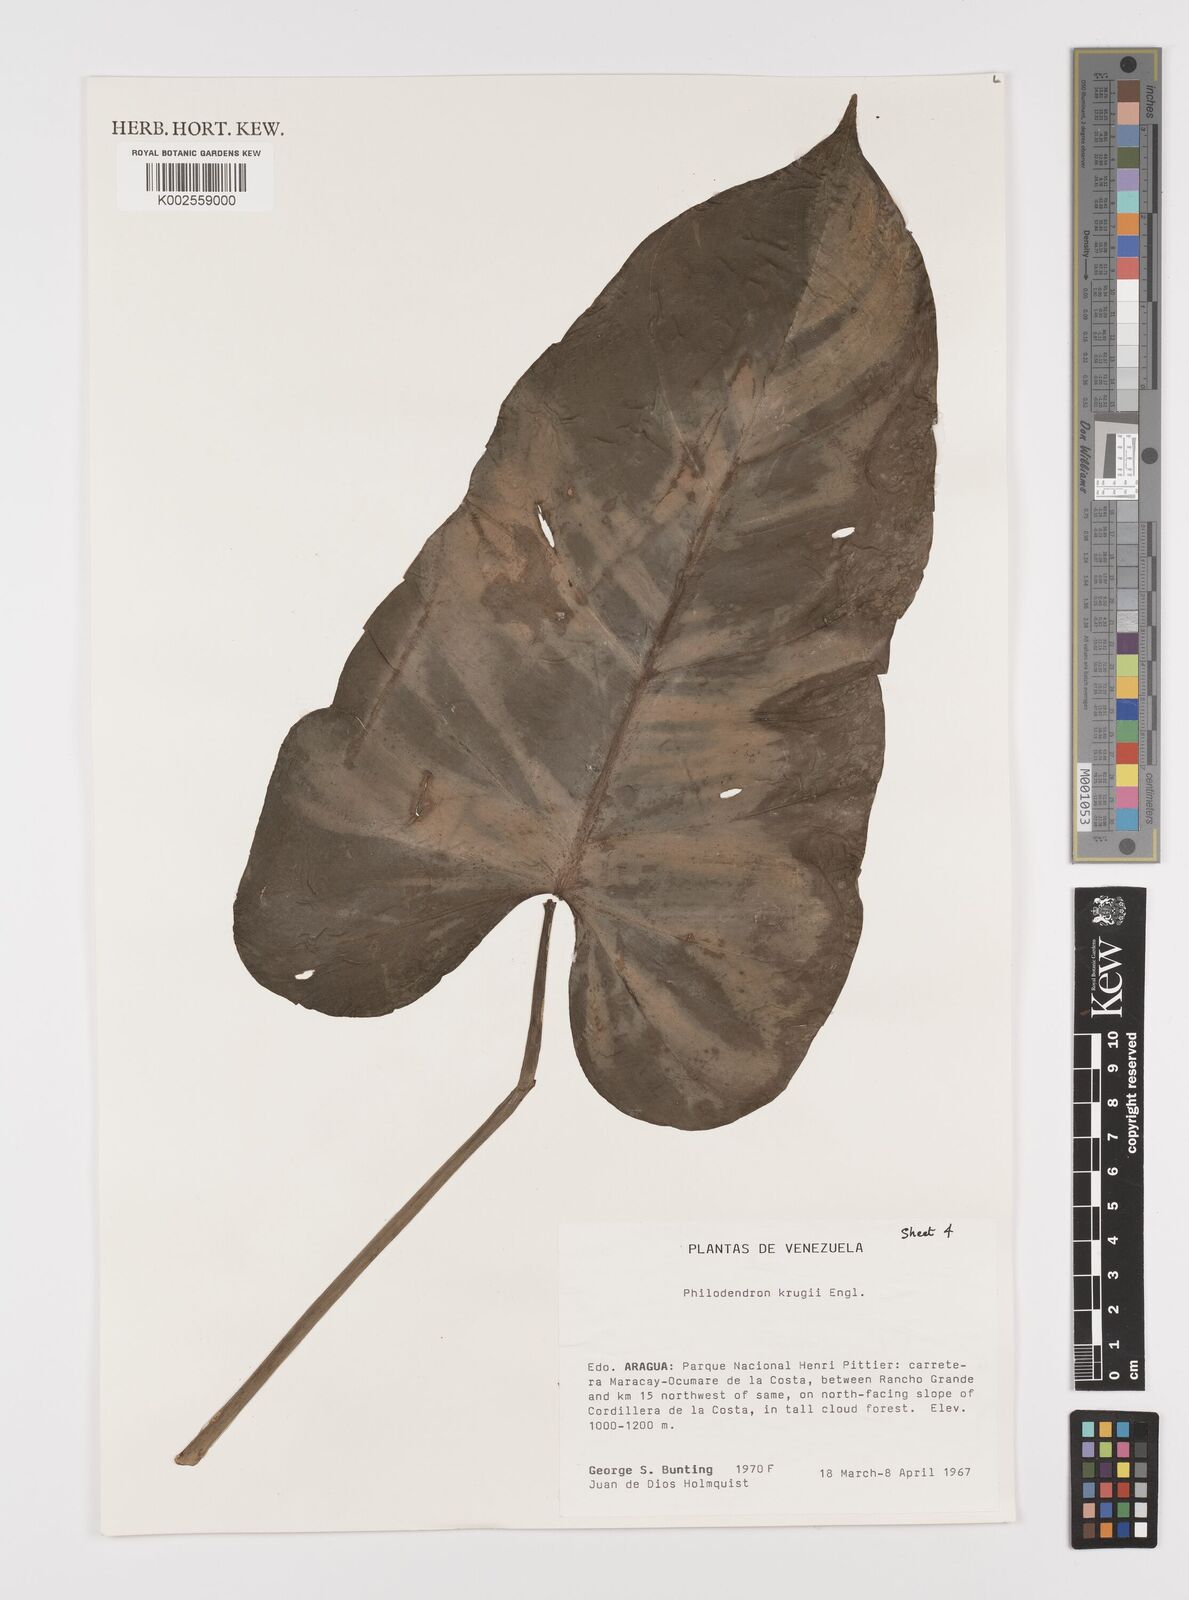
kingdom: Plantae
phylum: Tracheophyta
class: Liliopsida
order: Alismatales
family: Araceae
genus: Philodendron
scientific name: Philodendron krugii
